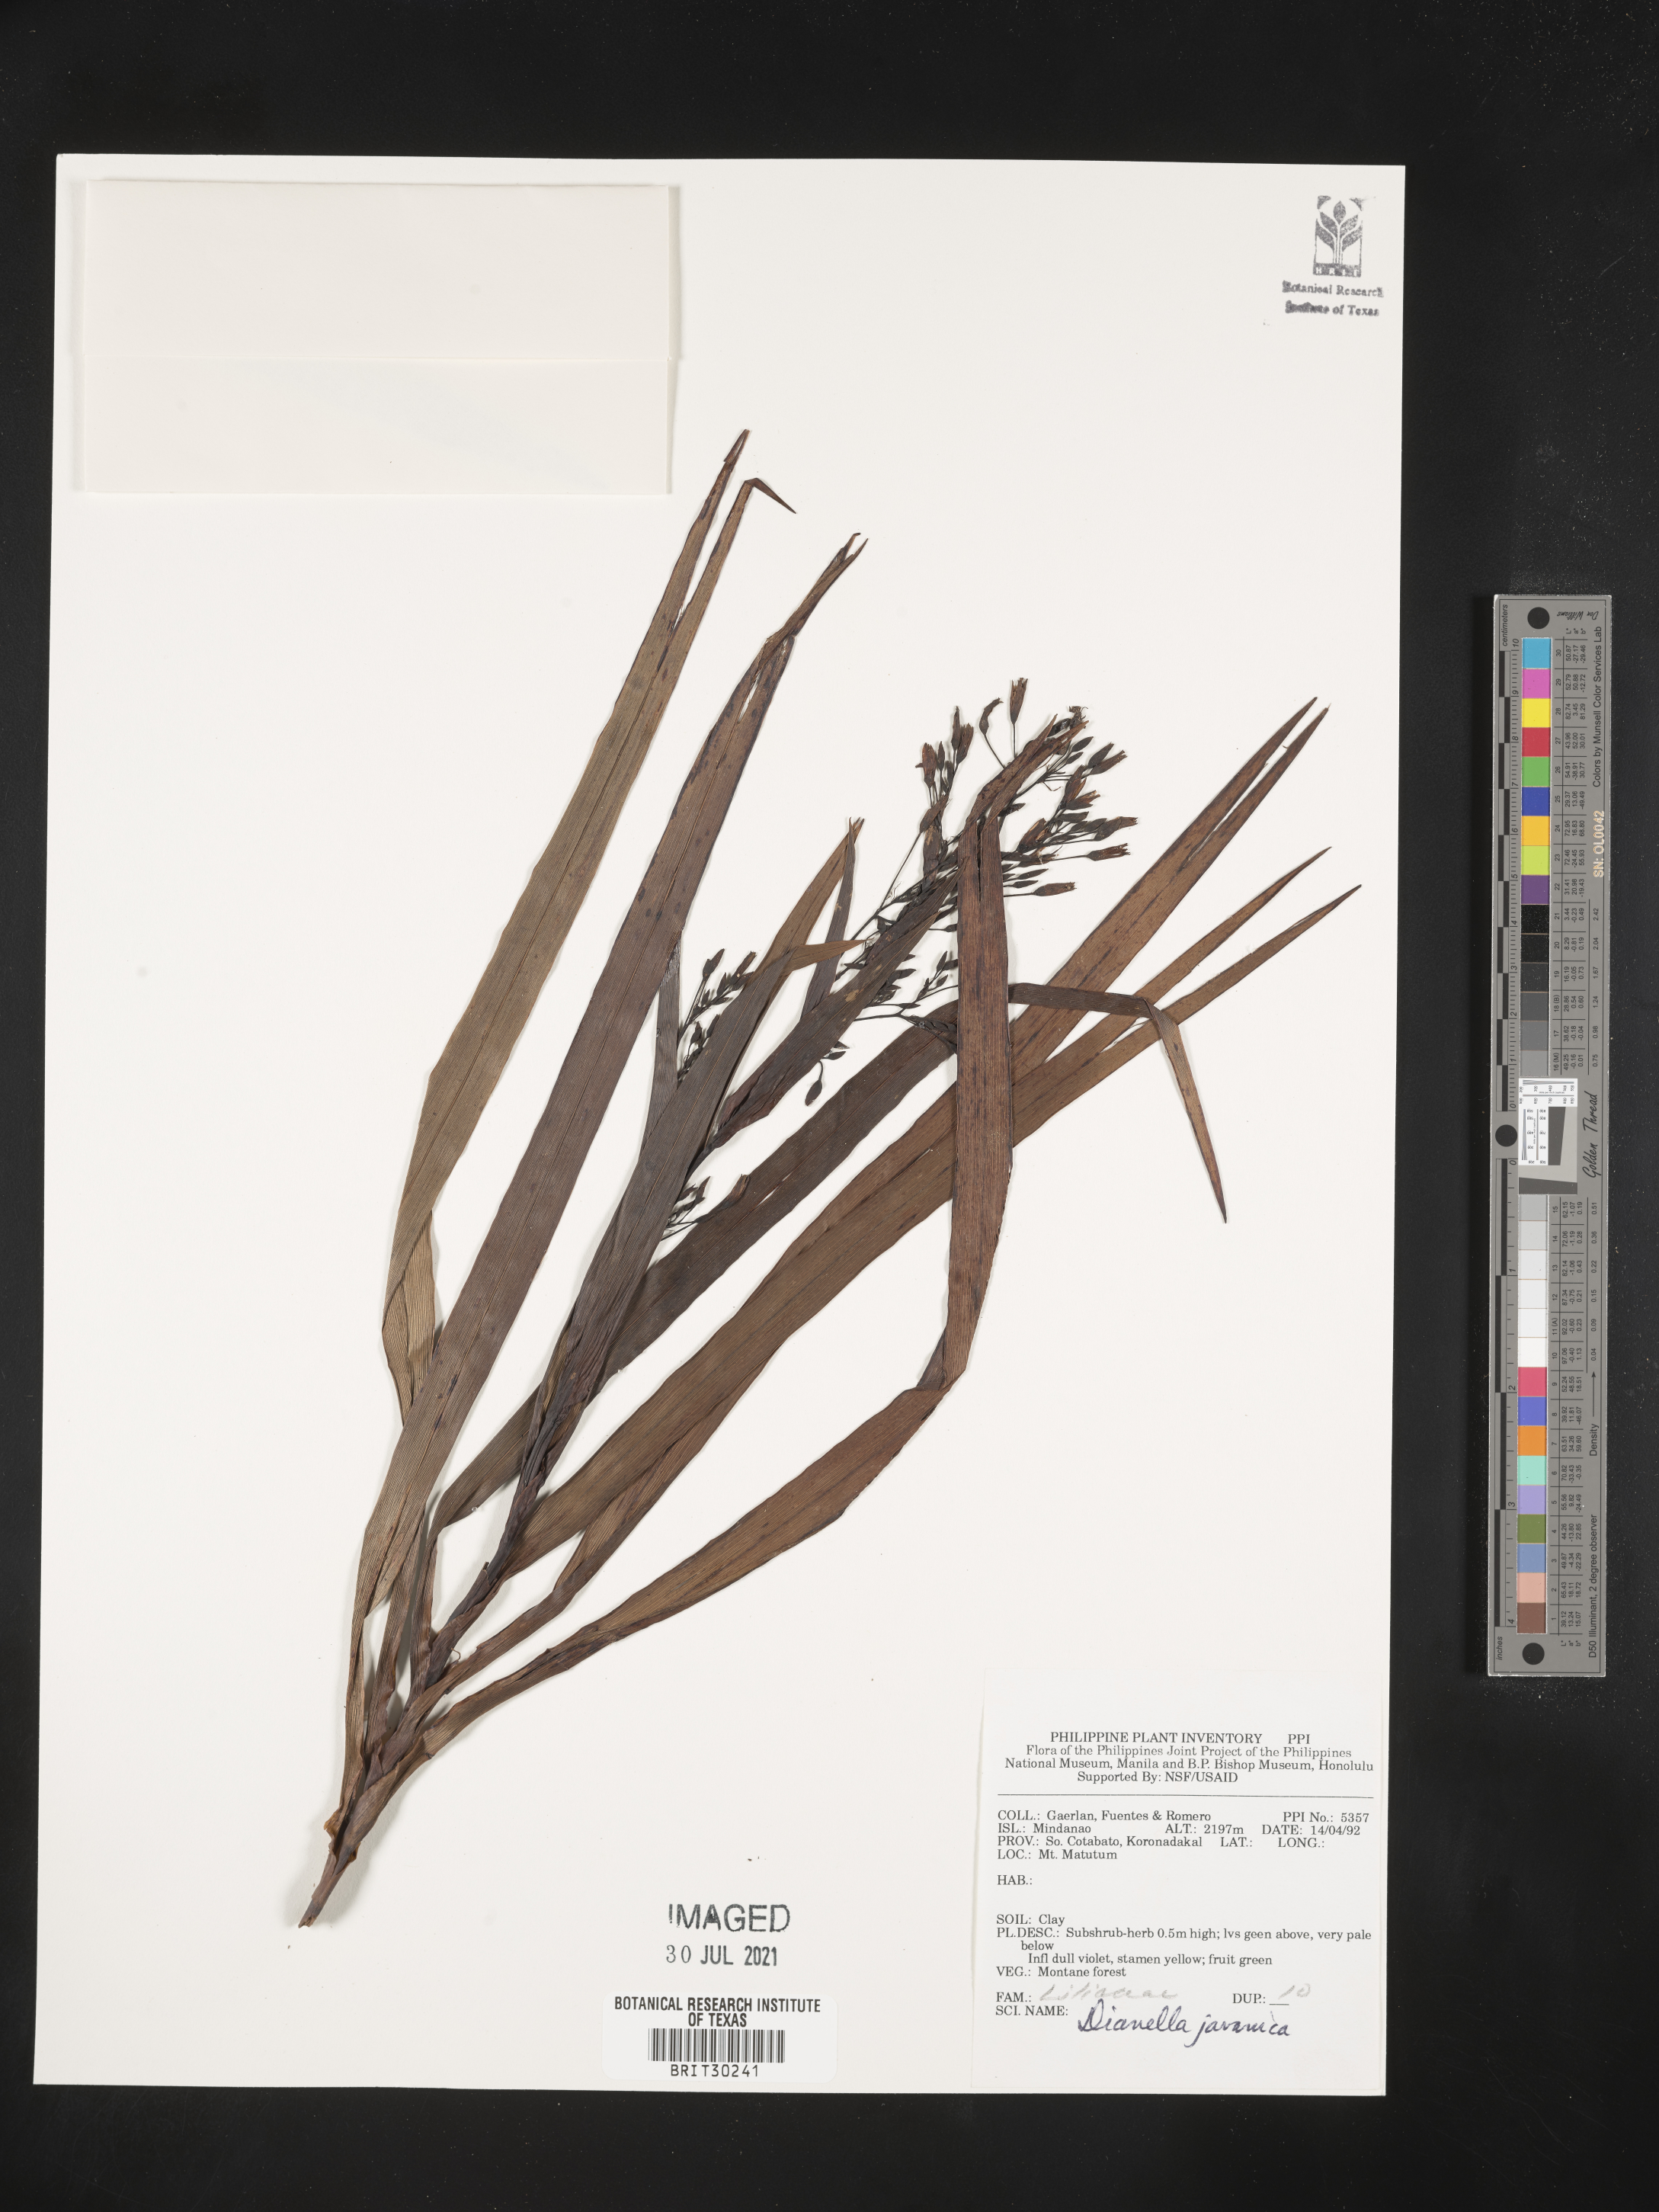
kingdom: Plantae
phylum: Tracheophyta
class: Liliopsida
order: Asparagales
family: Asphodelaceae
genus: Rhuacophila
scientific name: Rhuacophila javanica
